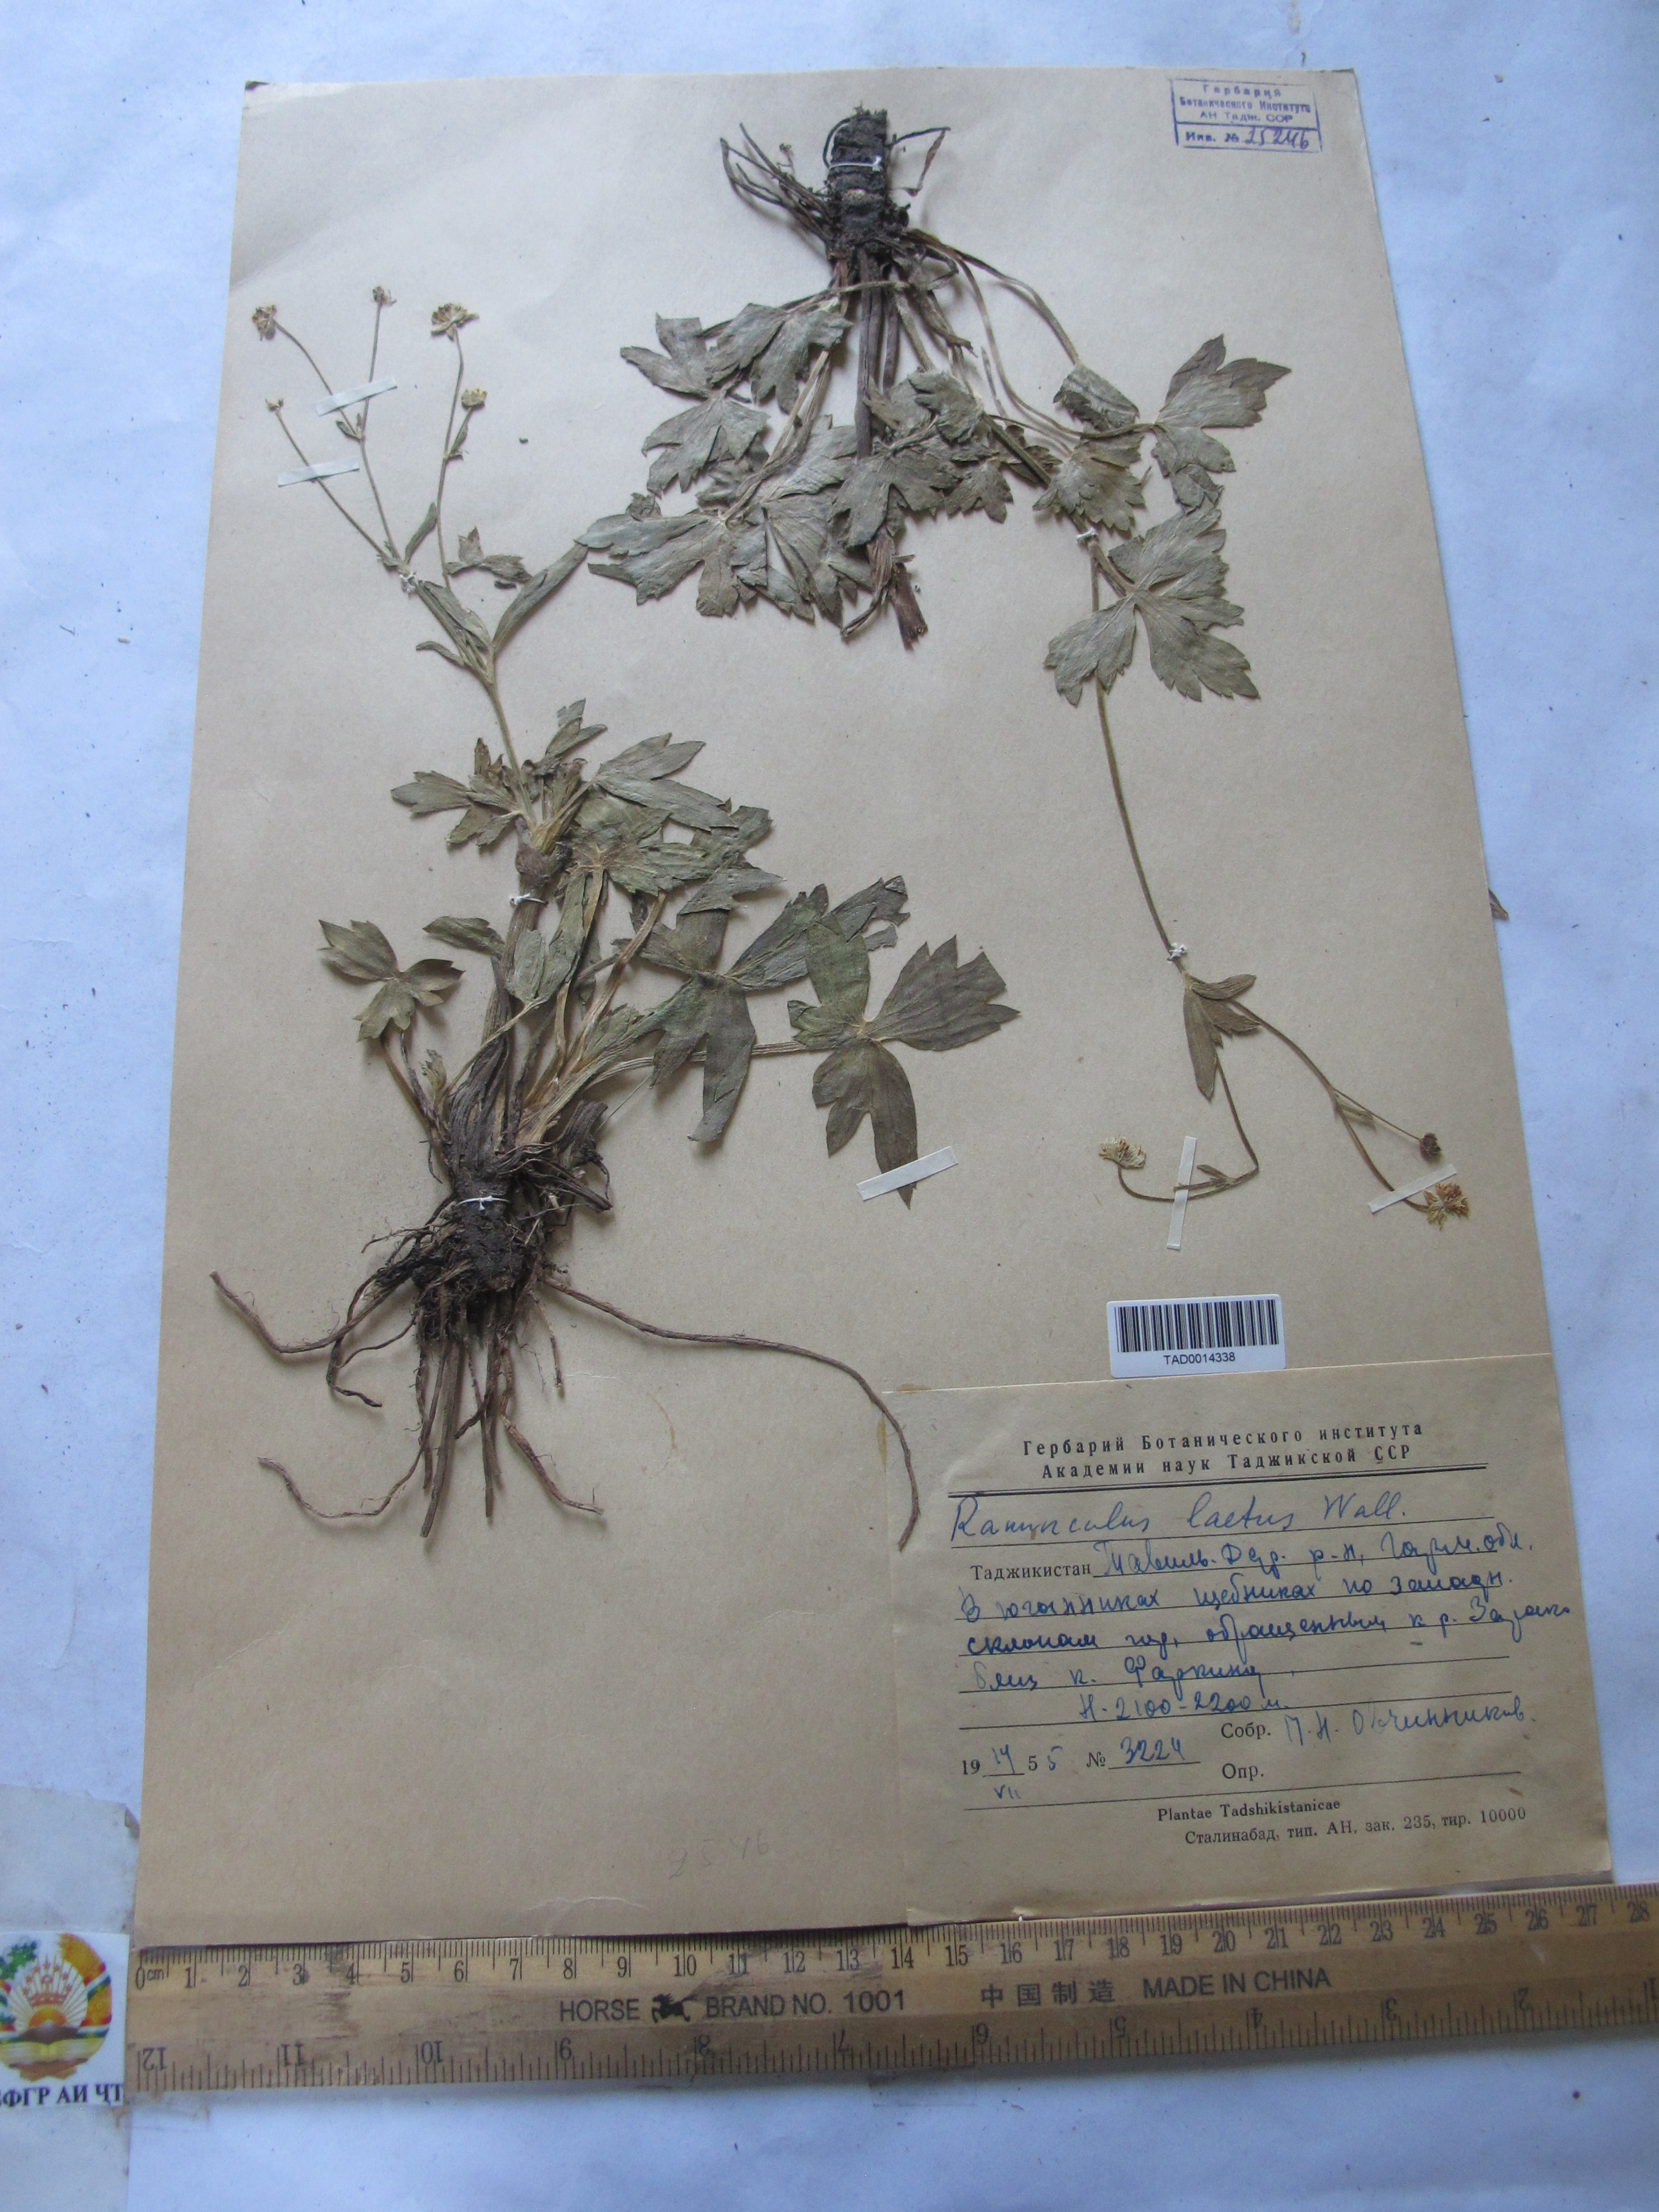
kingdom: Plantae
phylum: Tracheophyta
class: Magnoliopsida
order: Ranunculales
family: Ranunculaceae
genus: Ranunculus
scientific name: Ranunculus distans
